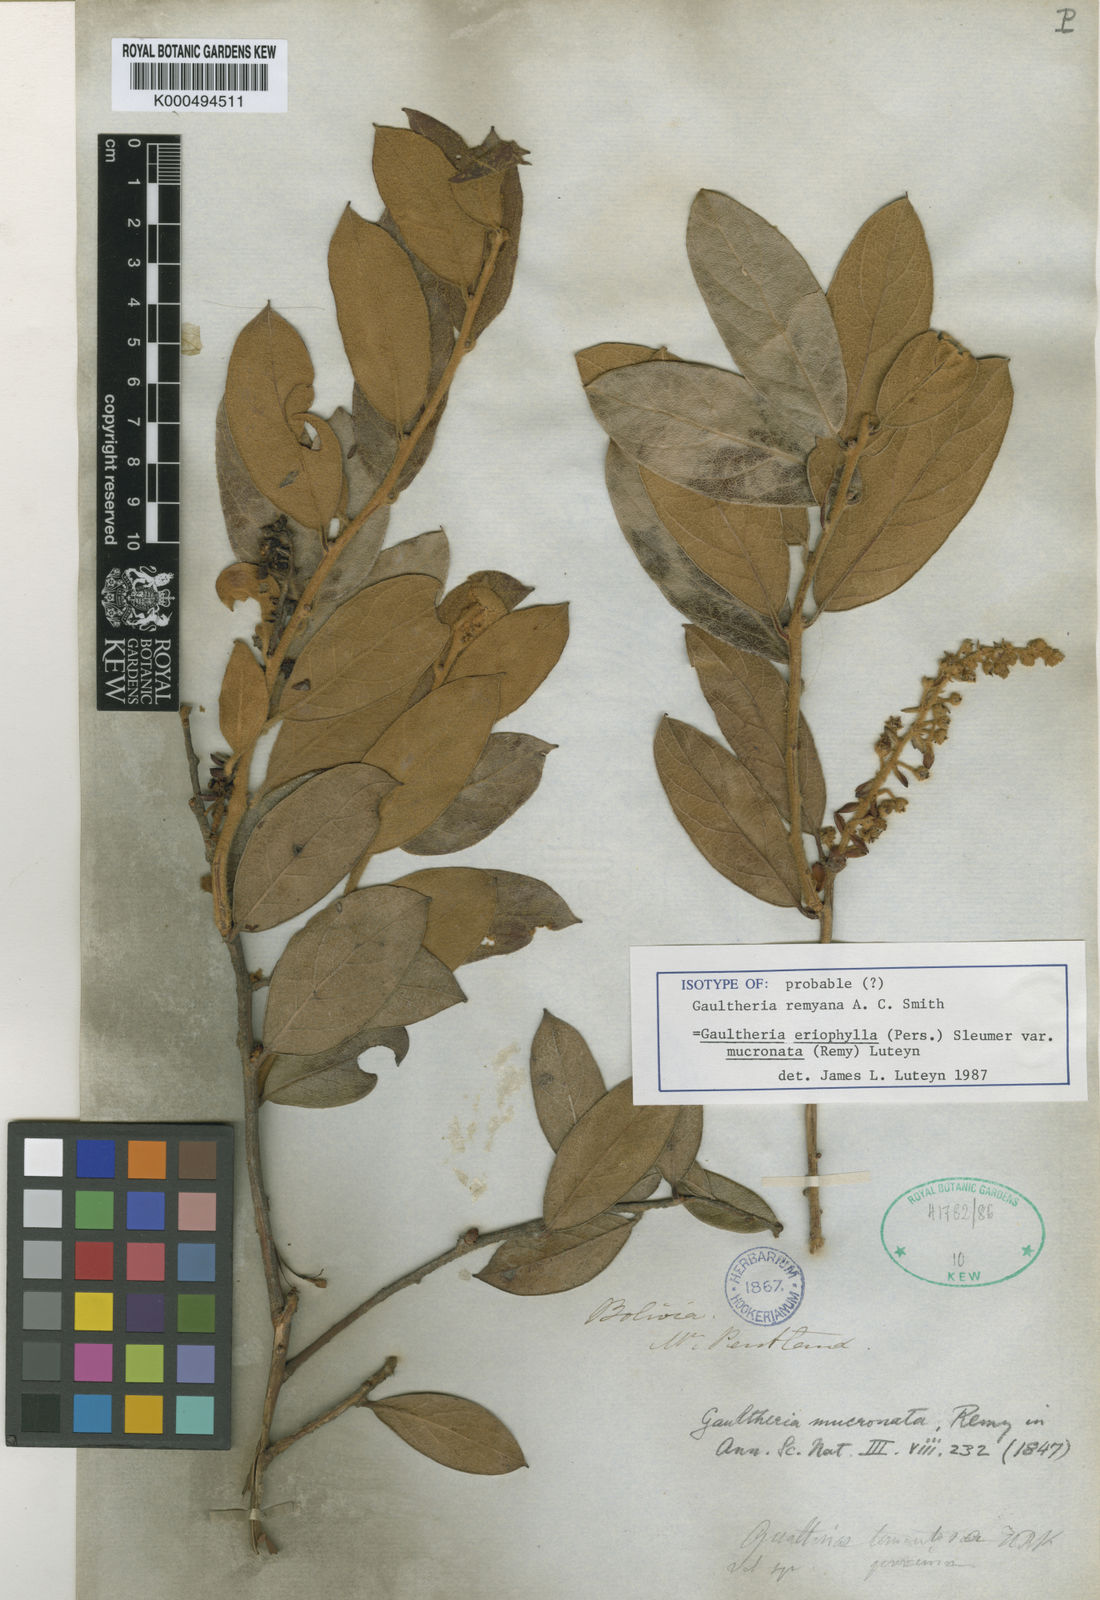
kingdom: Plantae
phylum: Tracheophyta
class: Magnoliopsida
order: Ericales
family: Ericaceae
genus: Gaultheria
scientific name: Gaultheria
